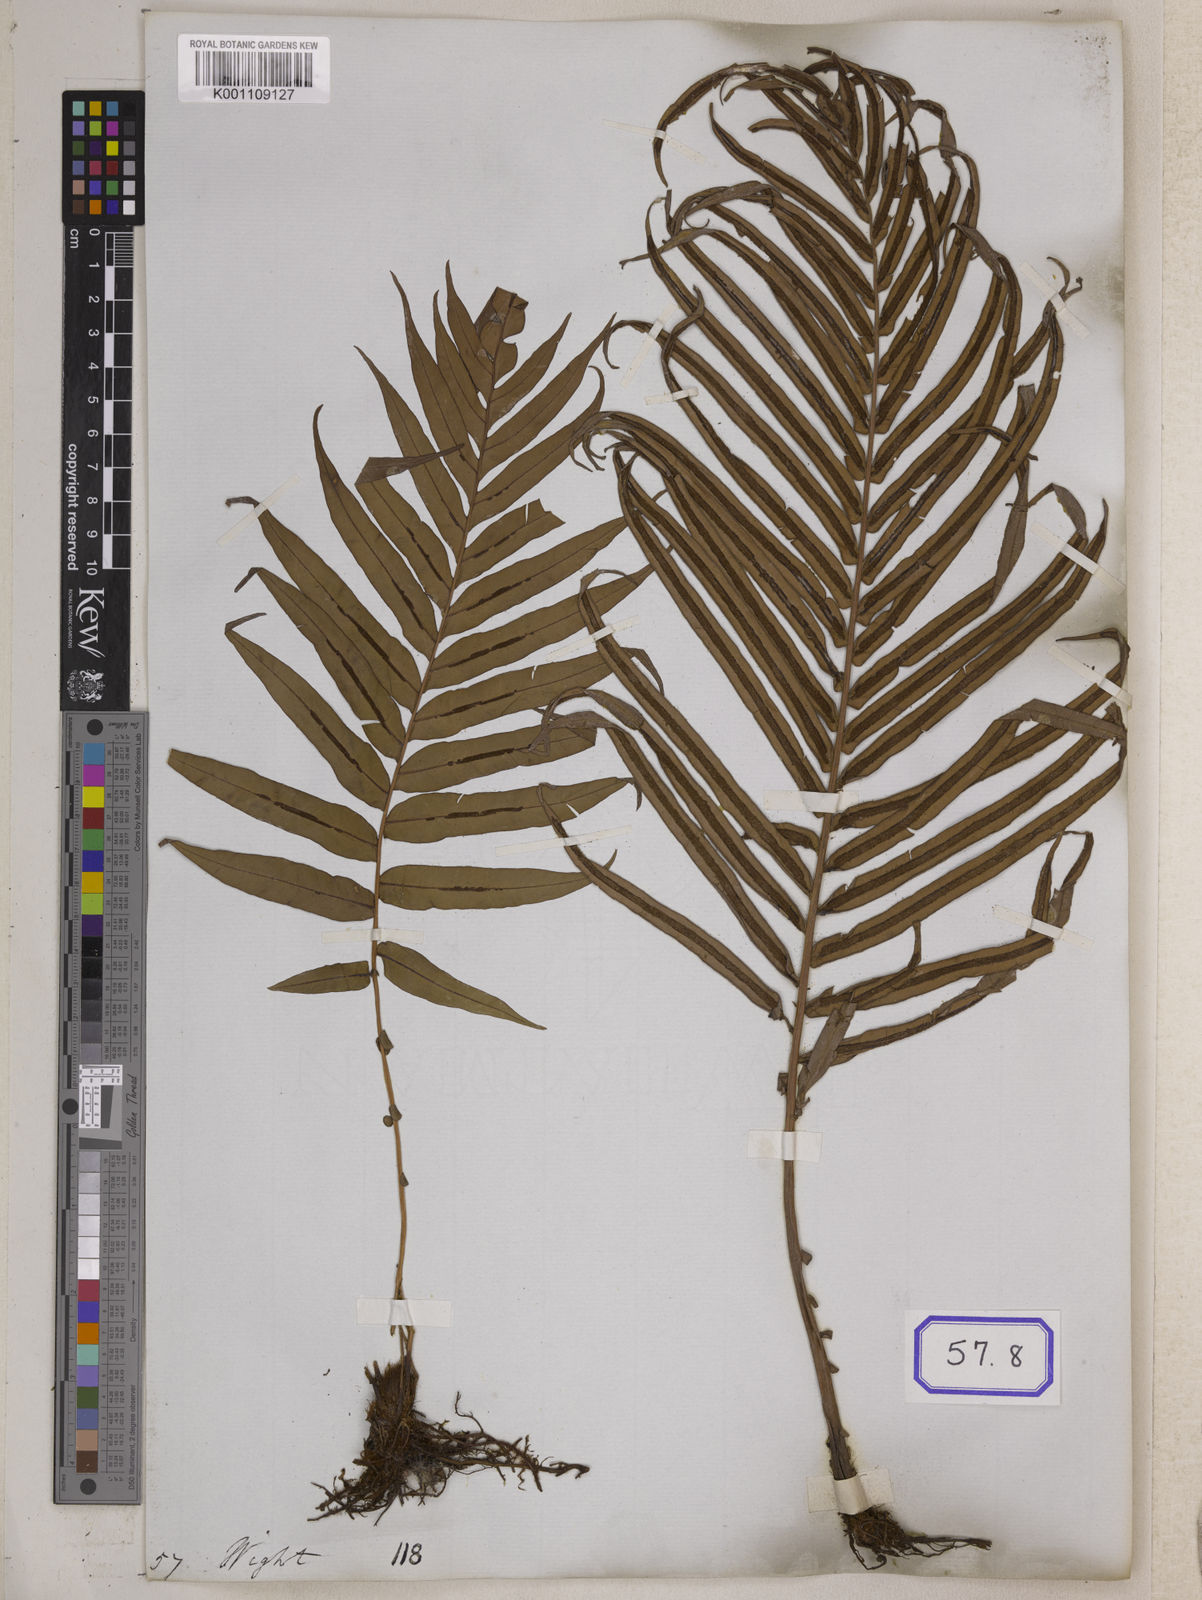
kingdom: Plantae
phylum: Tracheophyta
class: Polypodiopsida
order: Polypodiales
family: Blechnaceae
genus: Blechnopsis
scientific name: Blechnopsis orientalis
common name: Oriental blechnum
